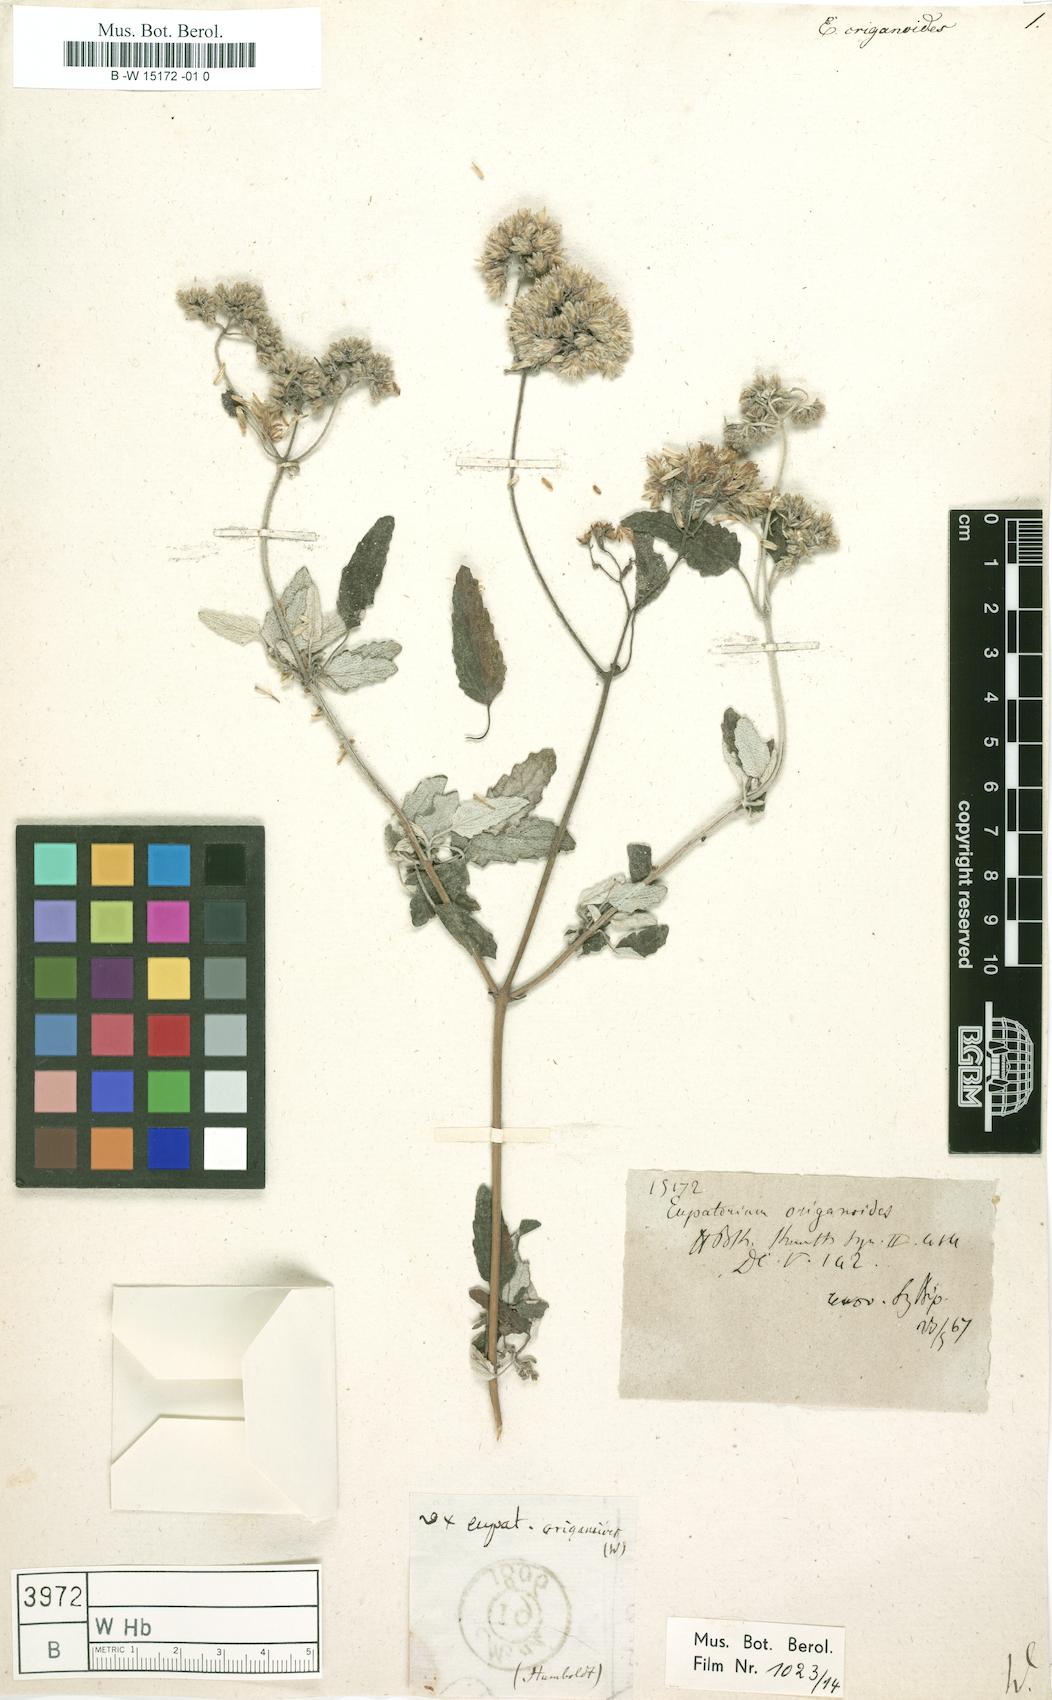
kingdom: Plantae
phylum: Tracheophyta
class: Magnoliopsida
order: Asterales
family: Asteraceae
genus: Cronquistianthus
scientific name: Cronquistianthus origanoides
